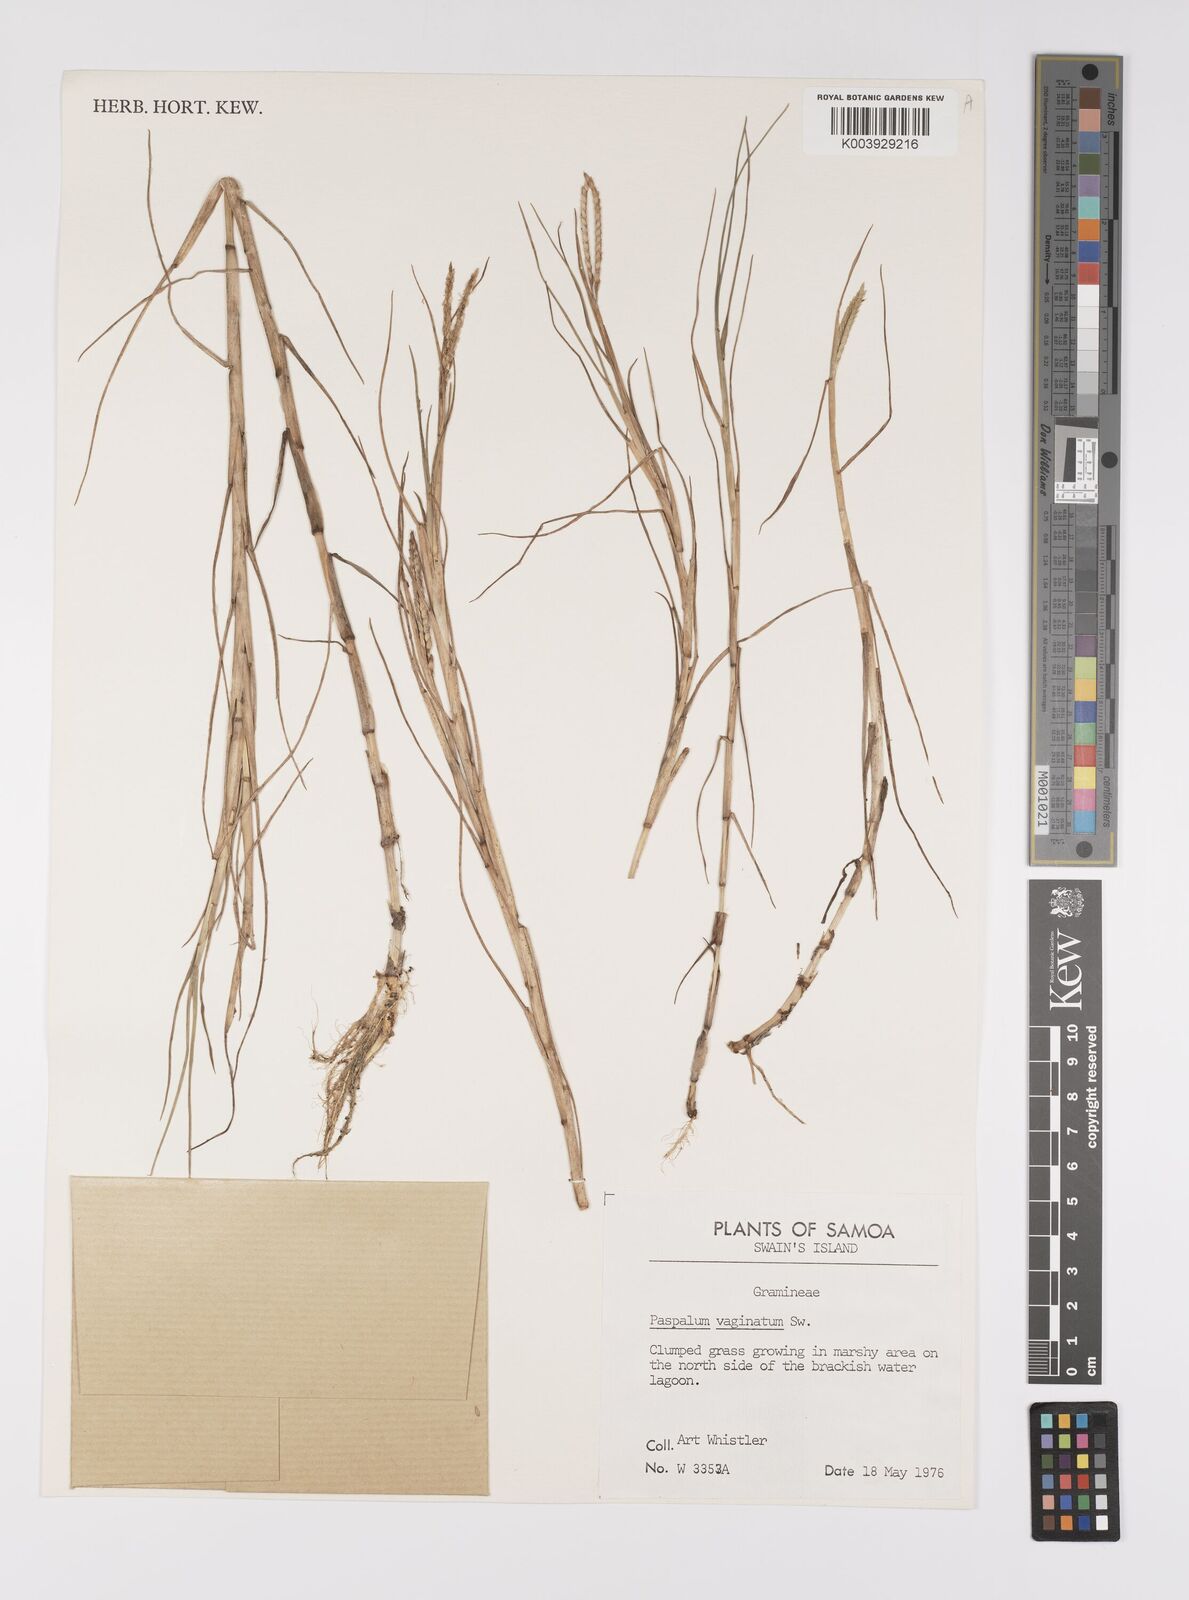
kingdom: Plantae
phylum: Tracheophyta
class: Liliopsida
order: Poales
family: Poaceae
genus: Paspalum
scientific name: Paspalum vaginatum
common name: Seashore paspalum
